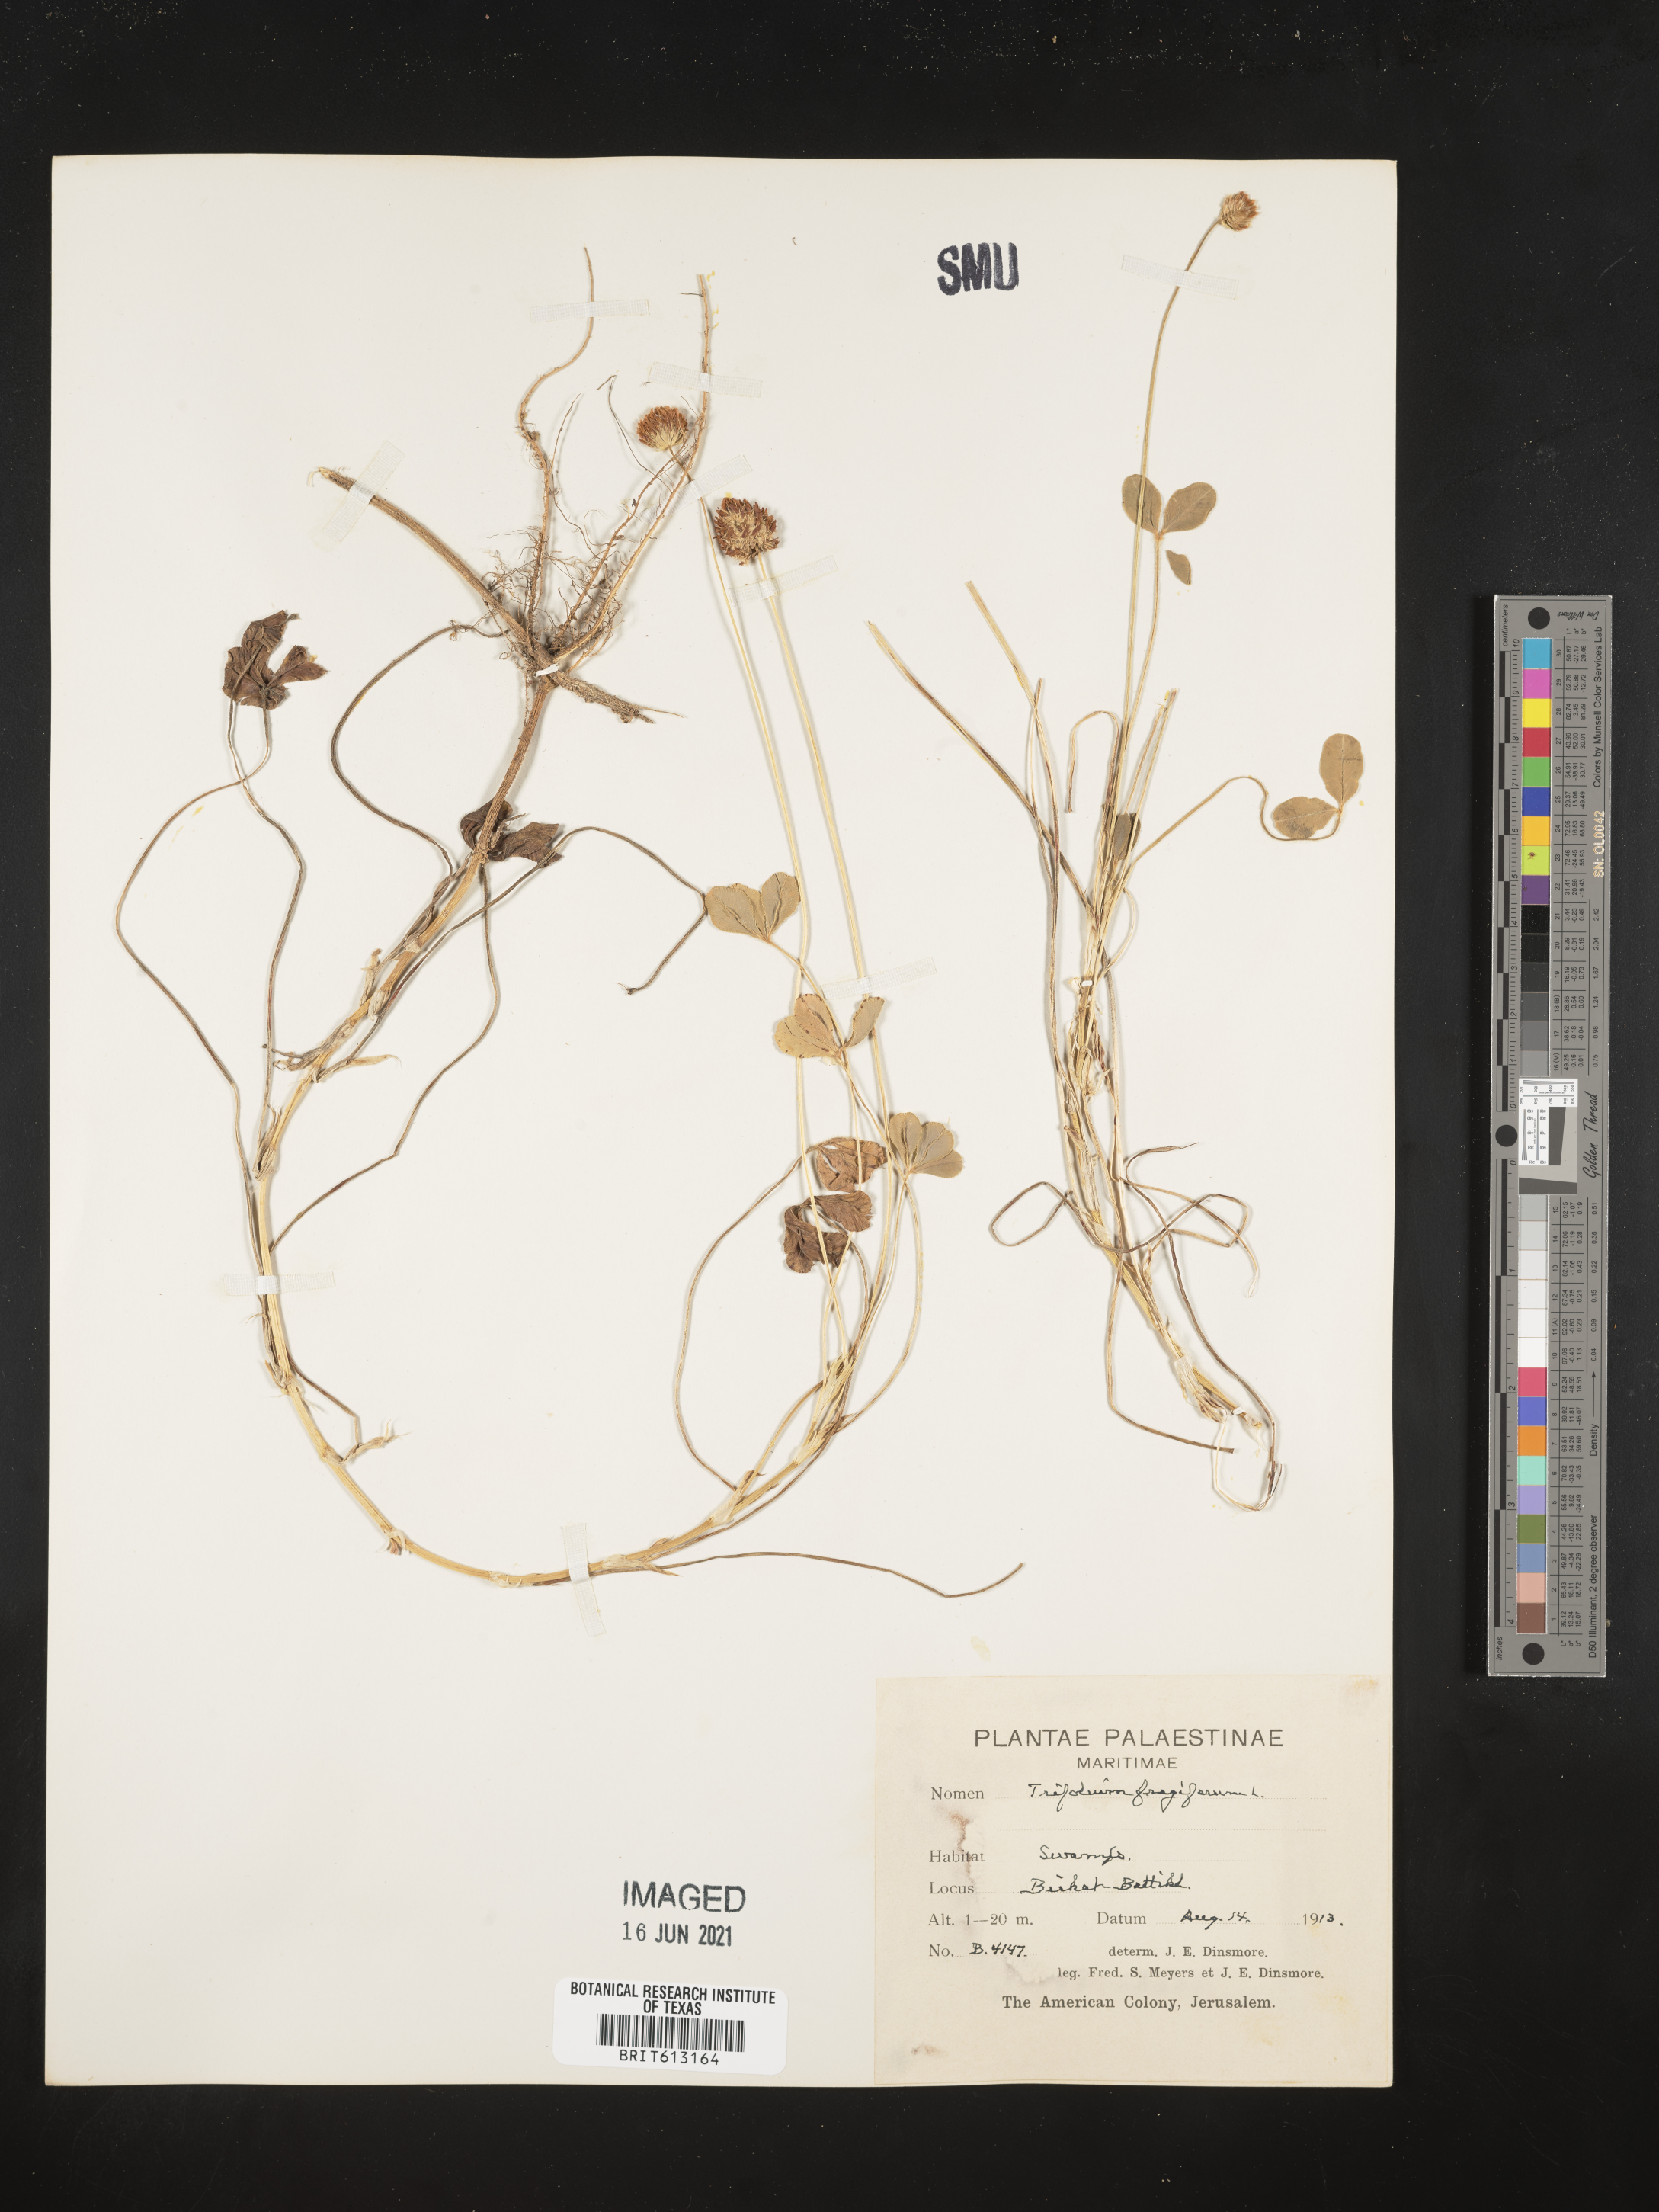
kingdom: Plantae
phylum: Tracheophyta
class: Magnoliopsida
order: Fabales
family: Fabaceae
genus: Trifolium
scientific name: Trifolium fragiferum
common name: Strawberry clover
